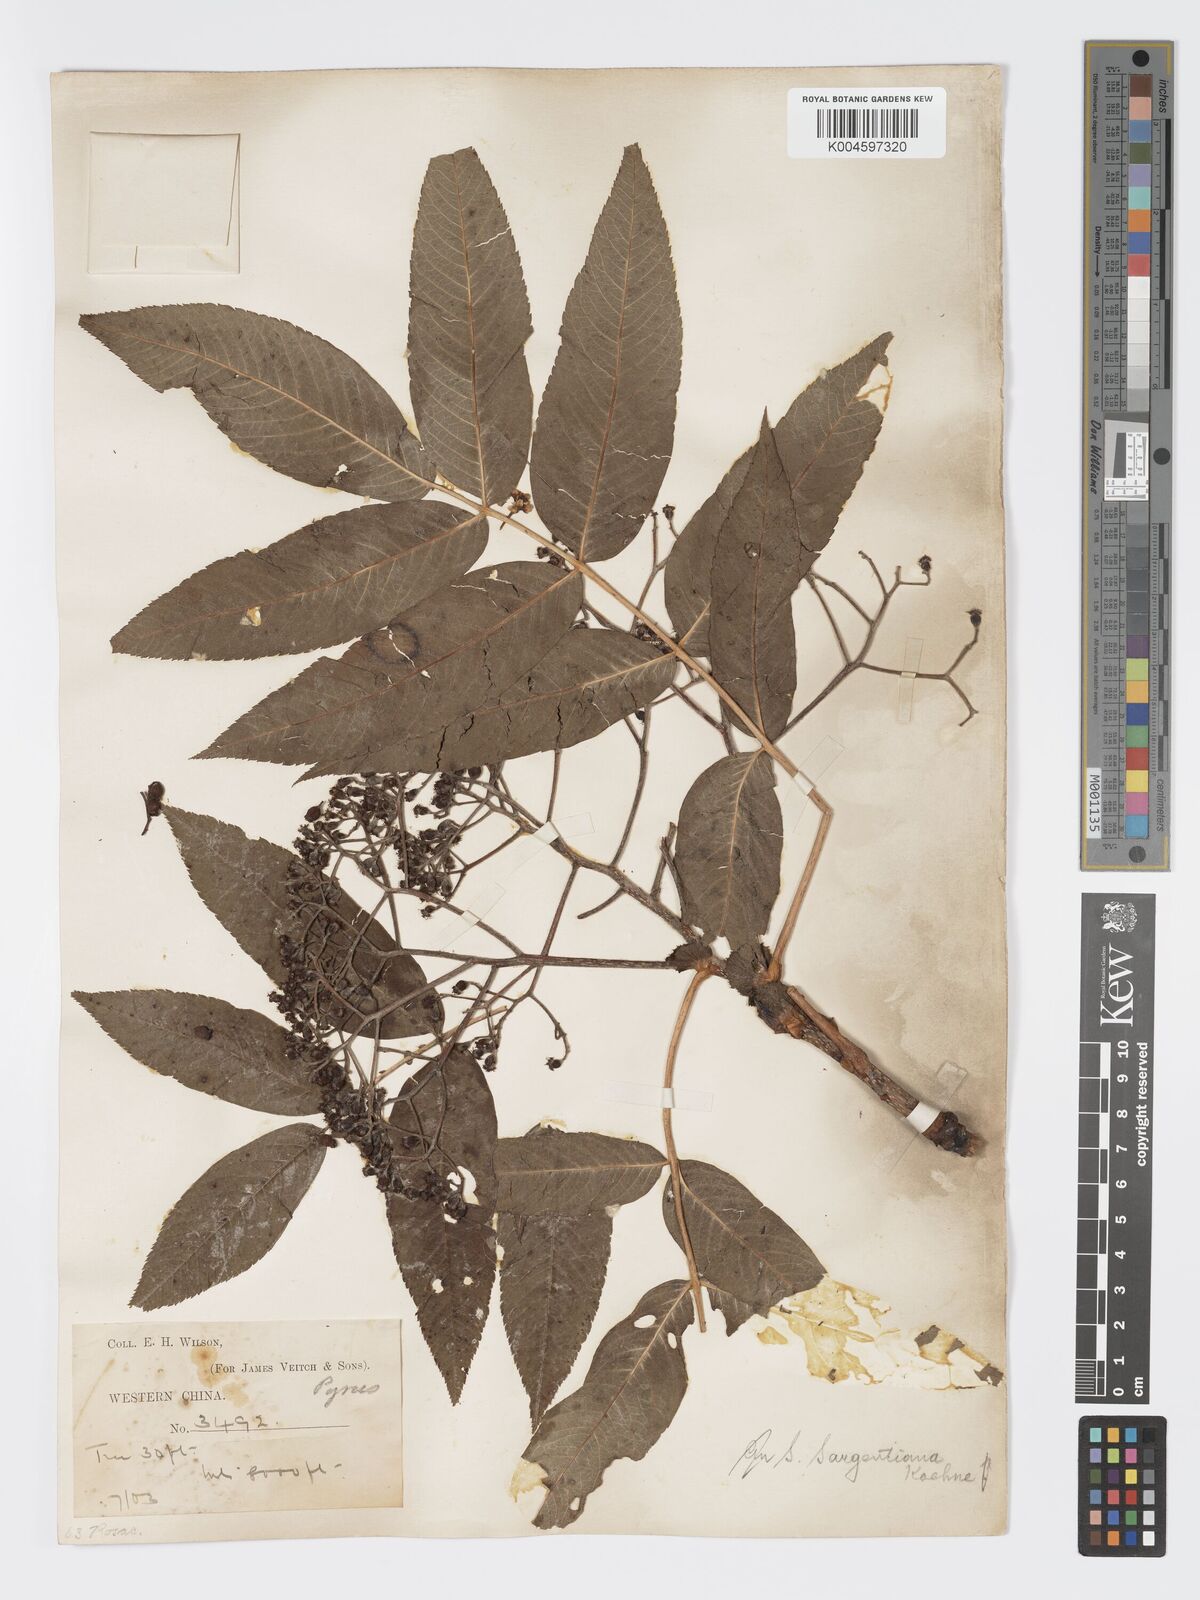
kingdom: Plantae
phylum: Tracheophyta
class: Magnoliopsida
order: Rosales
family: Rosaceae
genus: Sorbus
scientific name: Sorbus sargentiana
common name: Sargent's rowan
